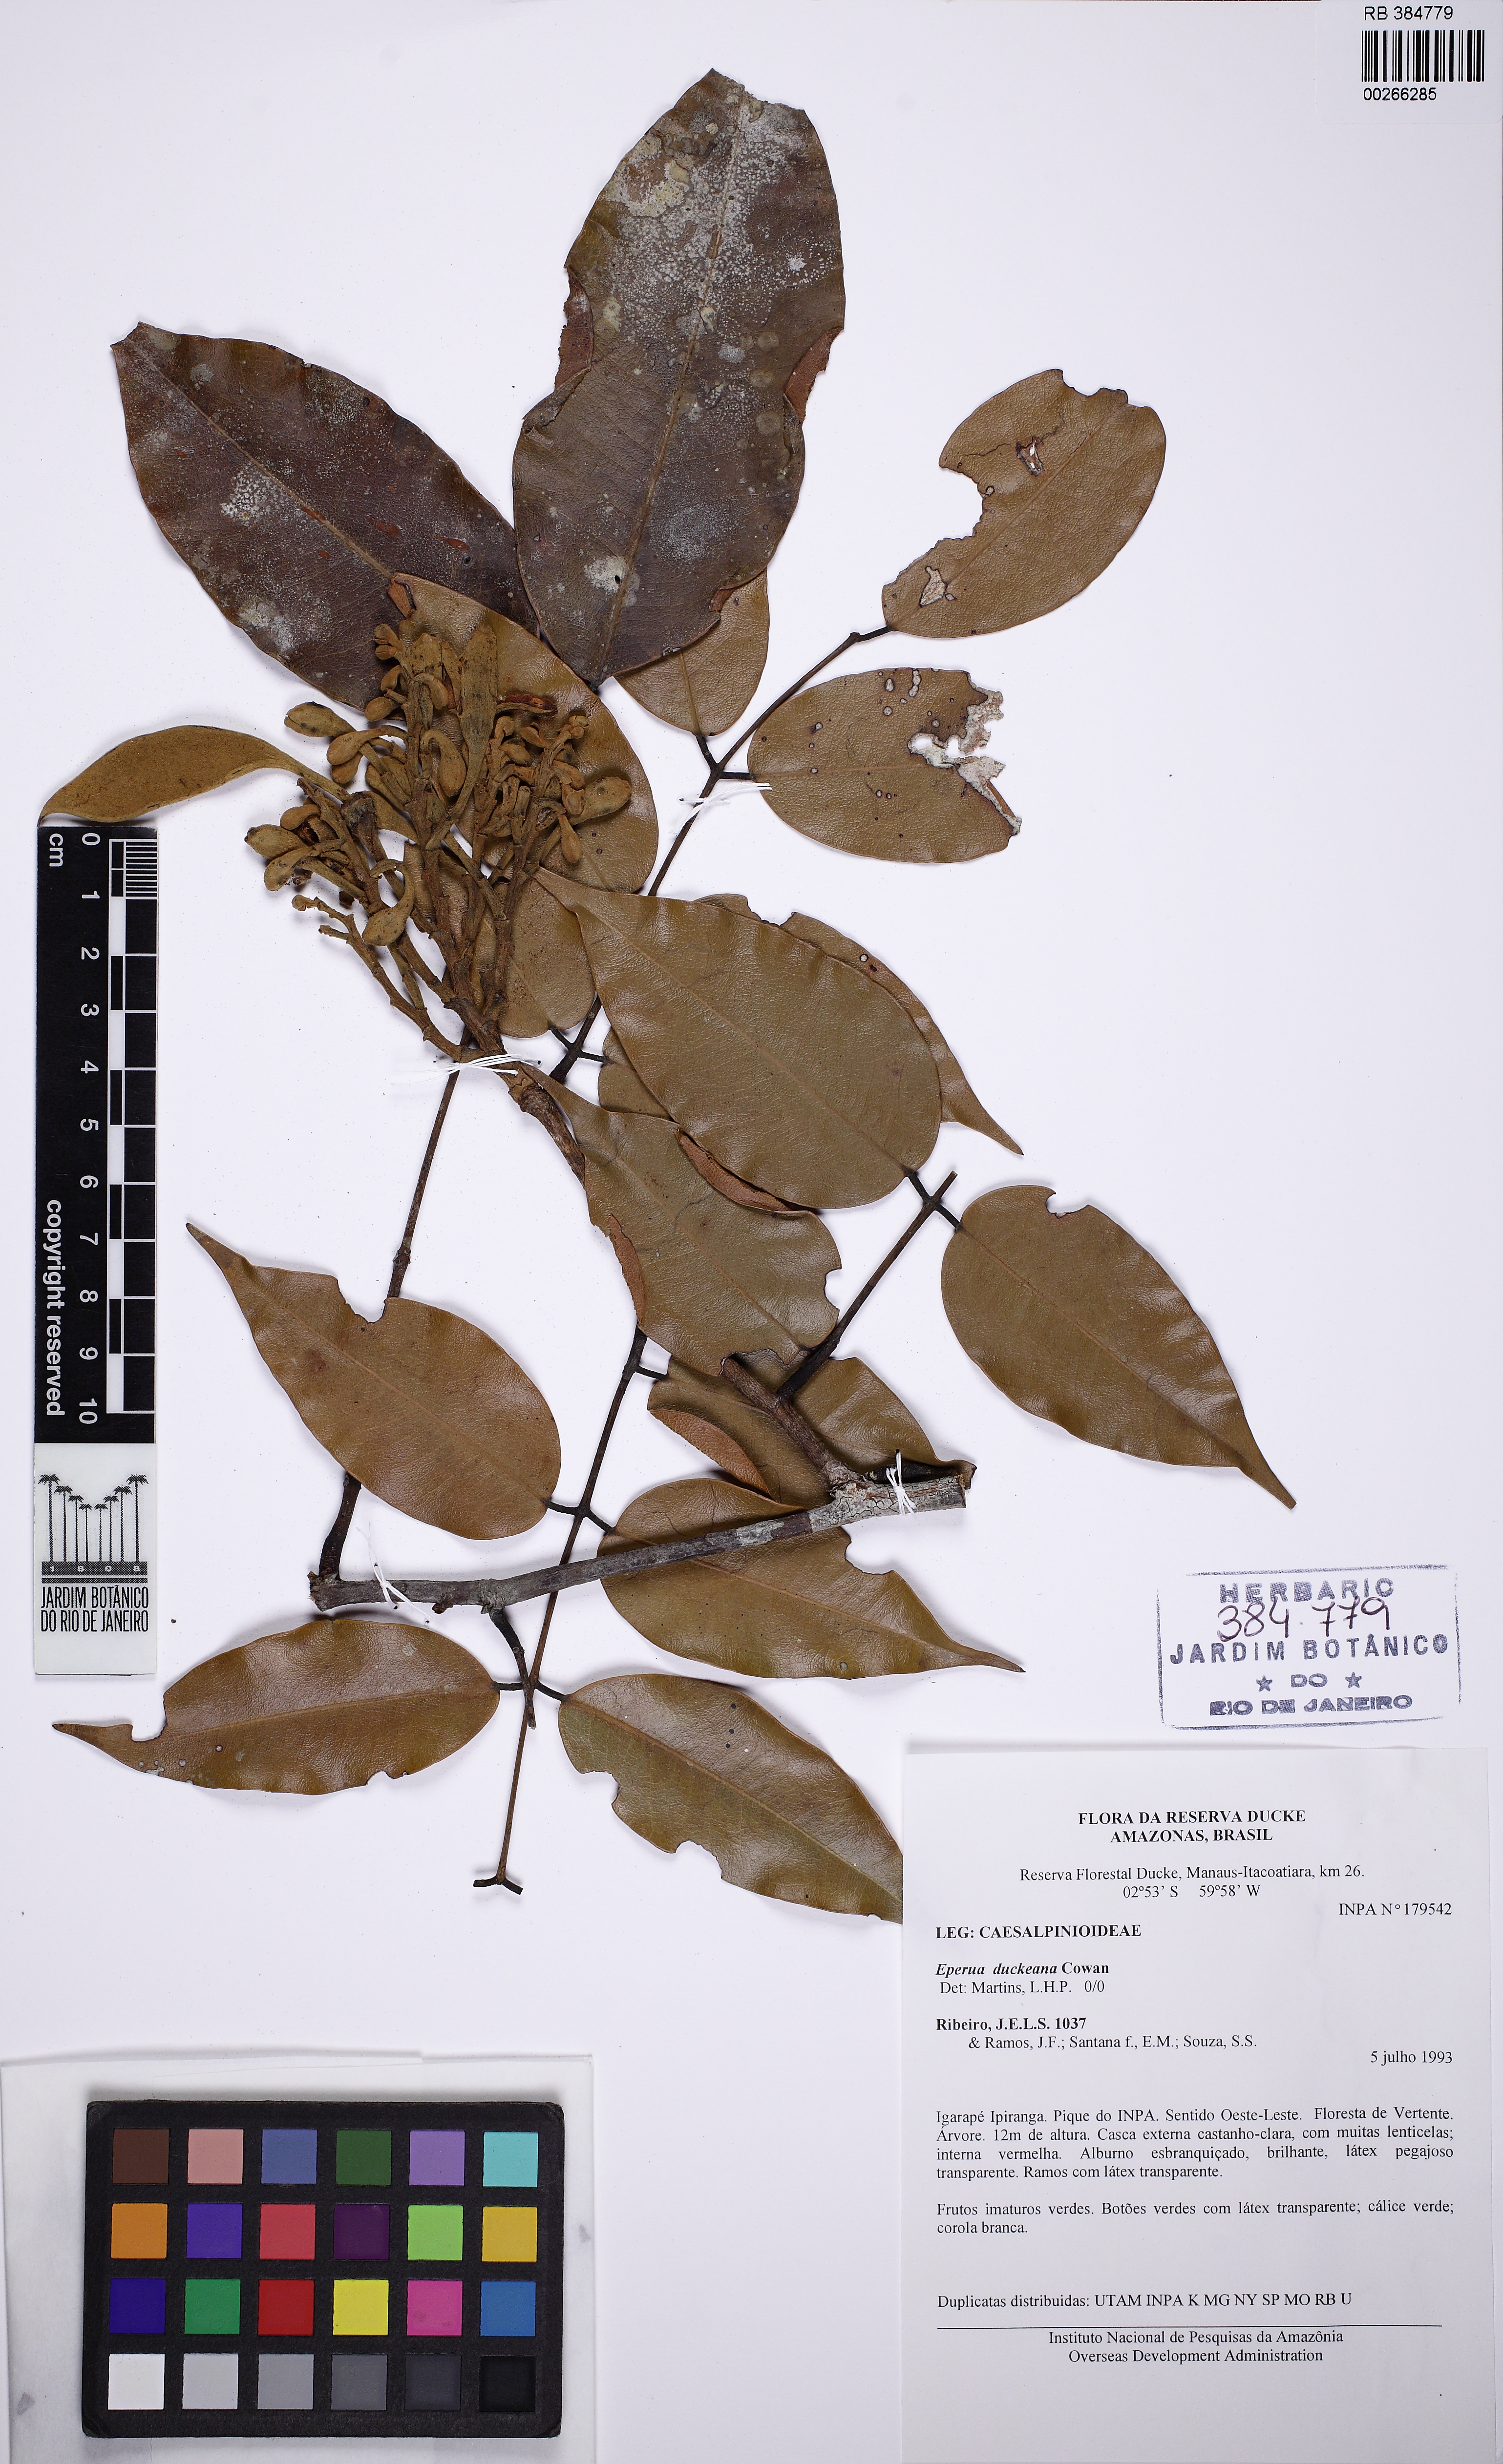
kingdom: Plantae
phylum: Tracheophyta
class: Magnoliopsida
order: Fabales
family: Fabaceae
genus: Eperua
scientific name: Eperua duckeana
